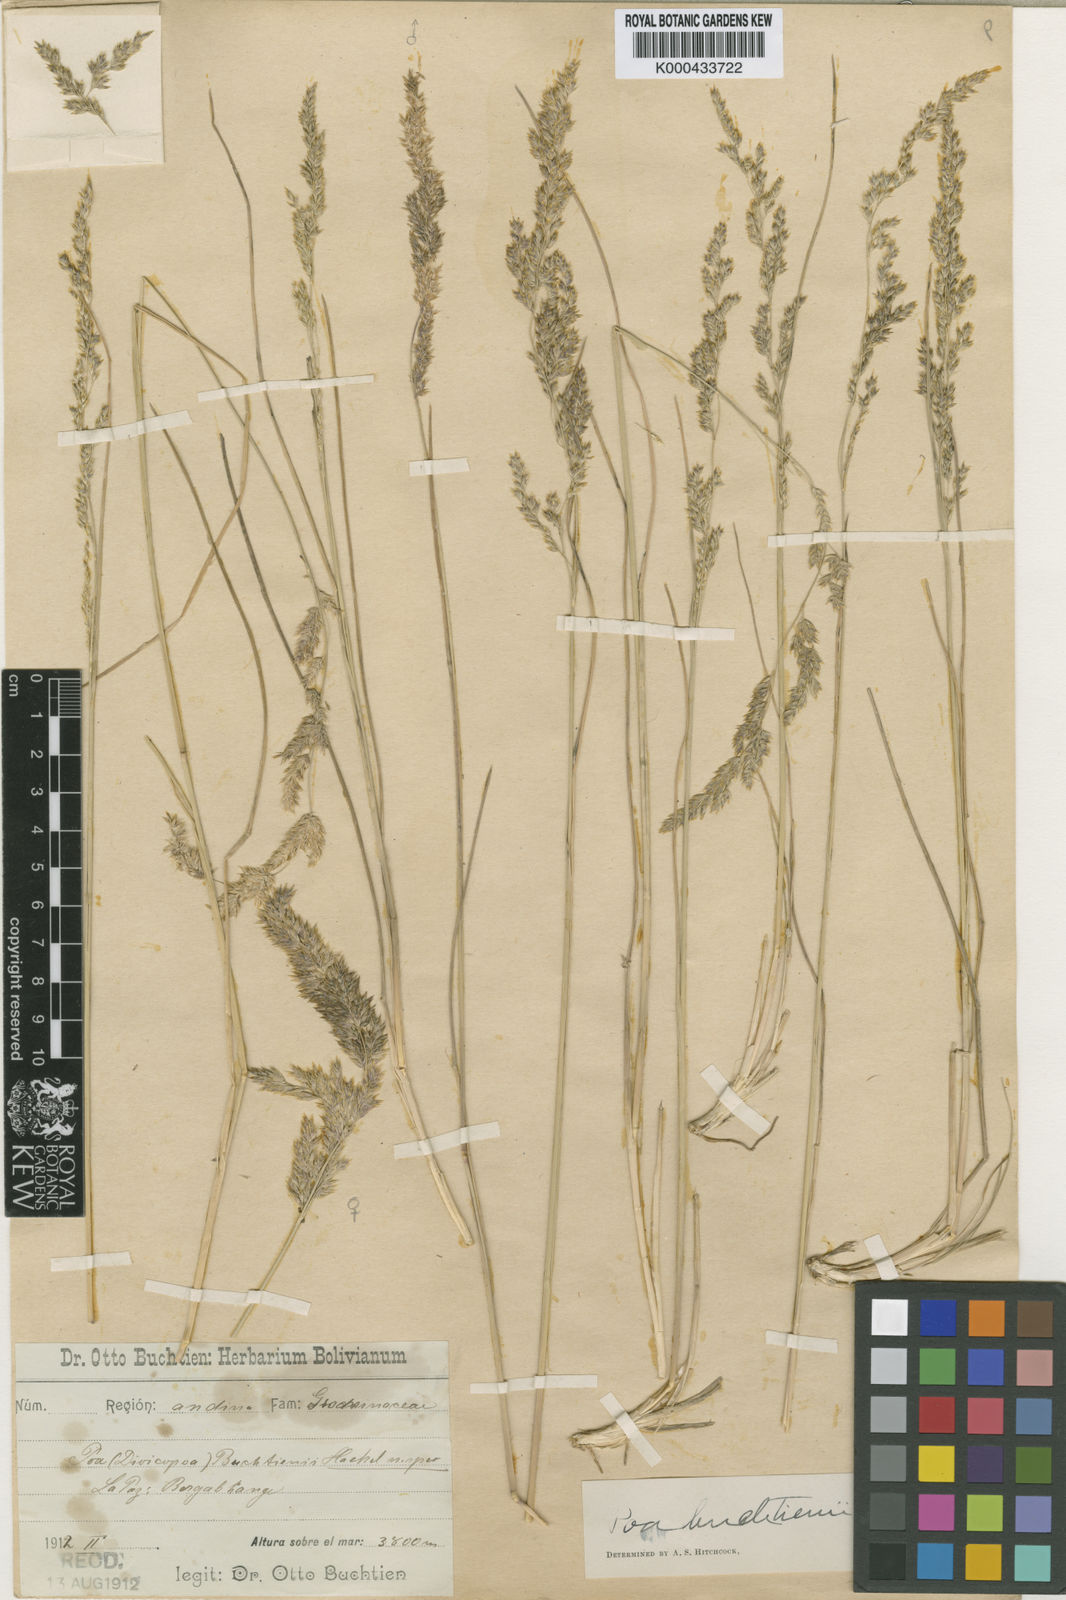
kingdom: Plantae
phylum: Tracheophyta
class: Liliopsida
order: Poales
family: Poaceae
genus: Poa
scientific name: Poa calchaquiensis
